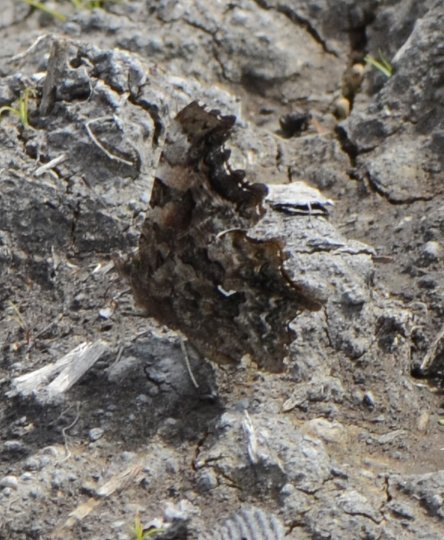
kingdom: Animalia
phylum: Arthropoda
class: Insecta
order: Lepidoptera
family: Nymphalidae
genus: Polygonia
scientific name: Polygonia faunus
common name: Green Comma
